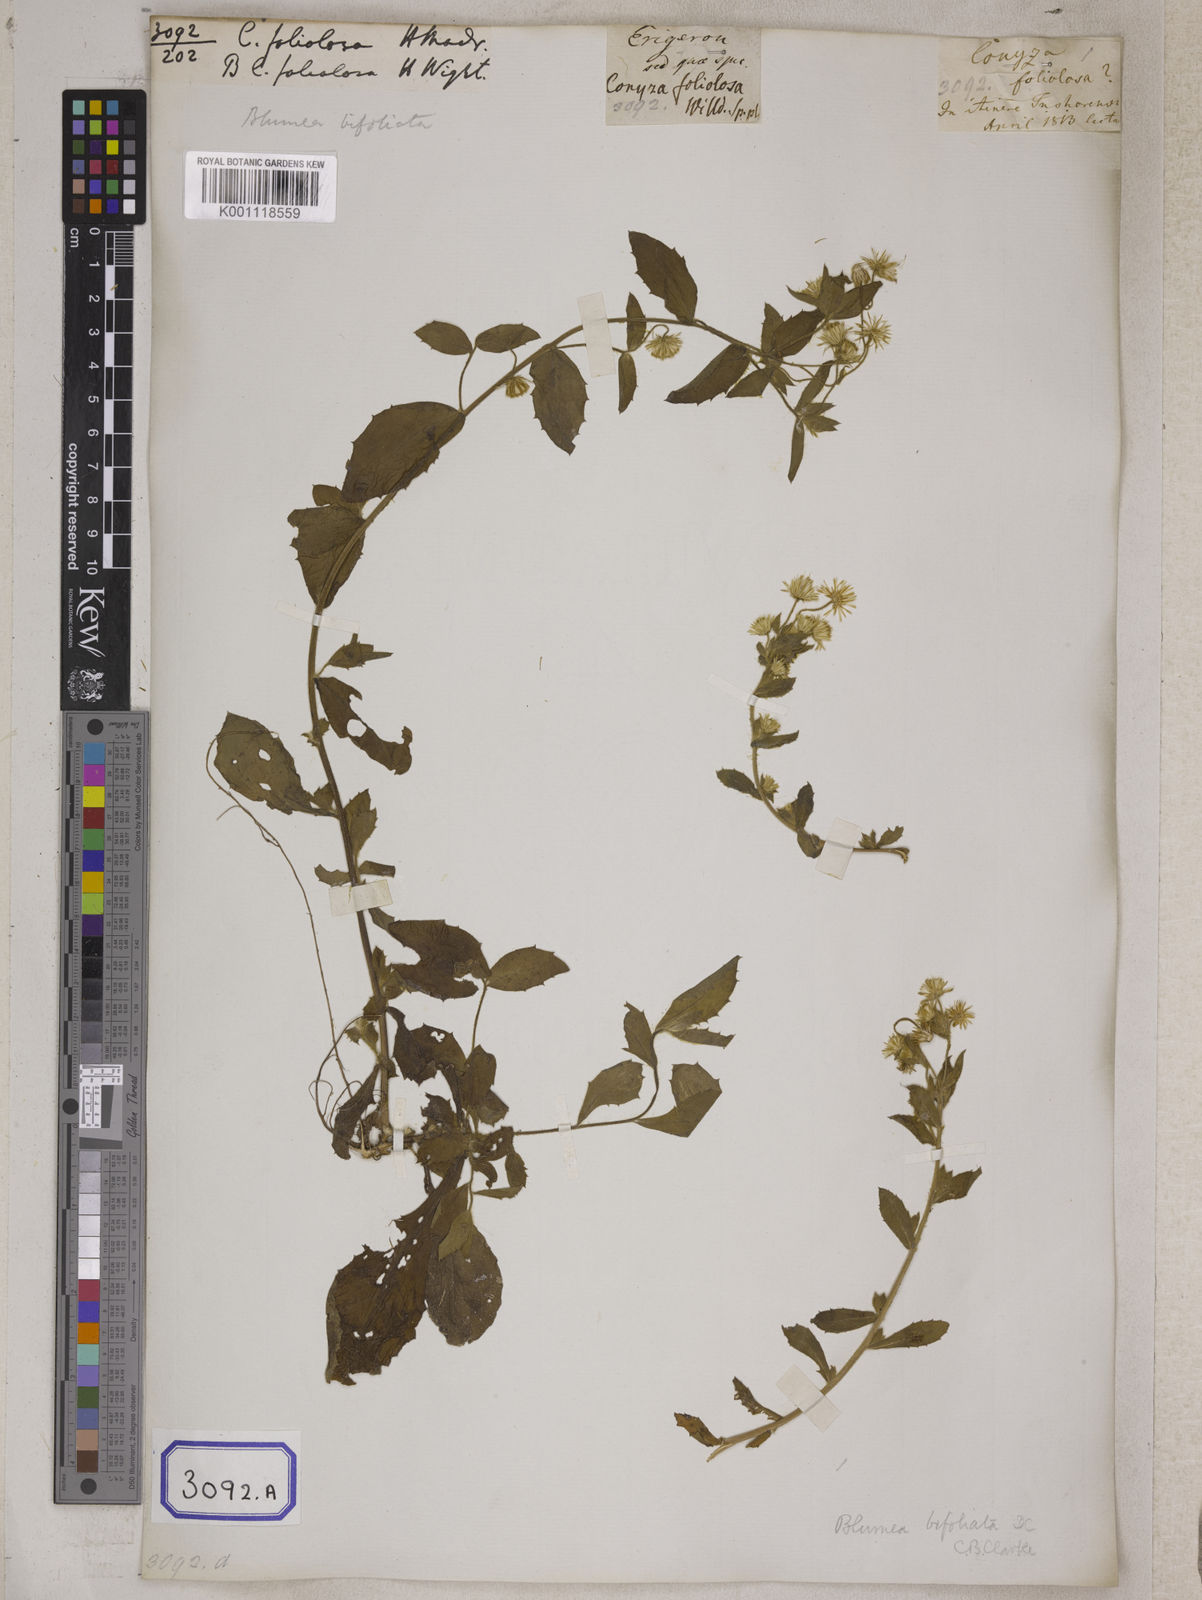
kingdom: Plantae
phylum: Tracheophyta
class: Magnoliopsida
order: Asterales
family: Asteraceae
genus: Blumea
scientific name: Blumea tenella
